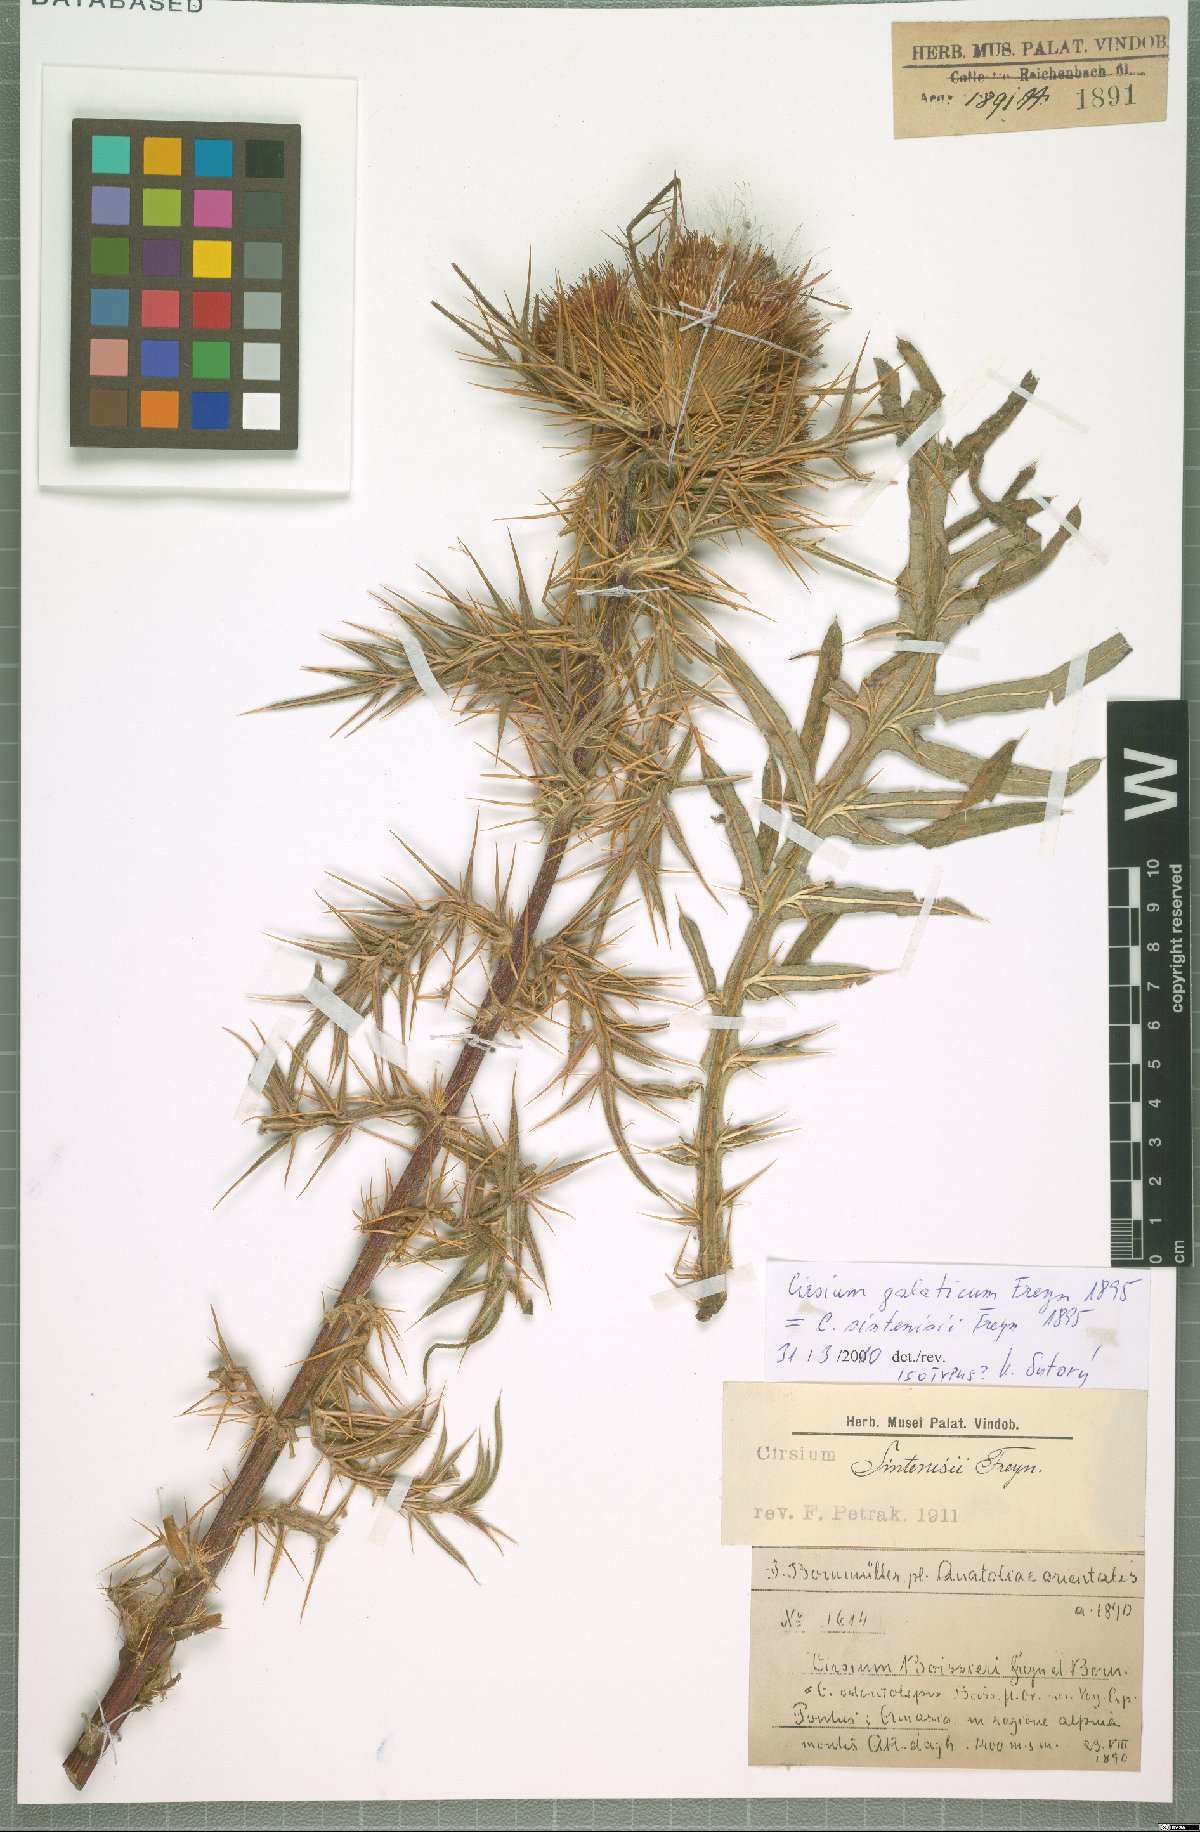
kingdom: Plantae
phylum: Tracheophyta
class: Magnoliopsida
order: Asterales
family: Asteraceae
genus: Lophiolepis
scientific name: Lophiolepis sintenisii
